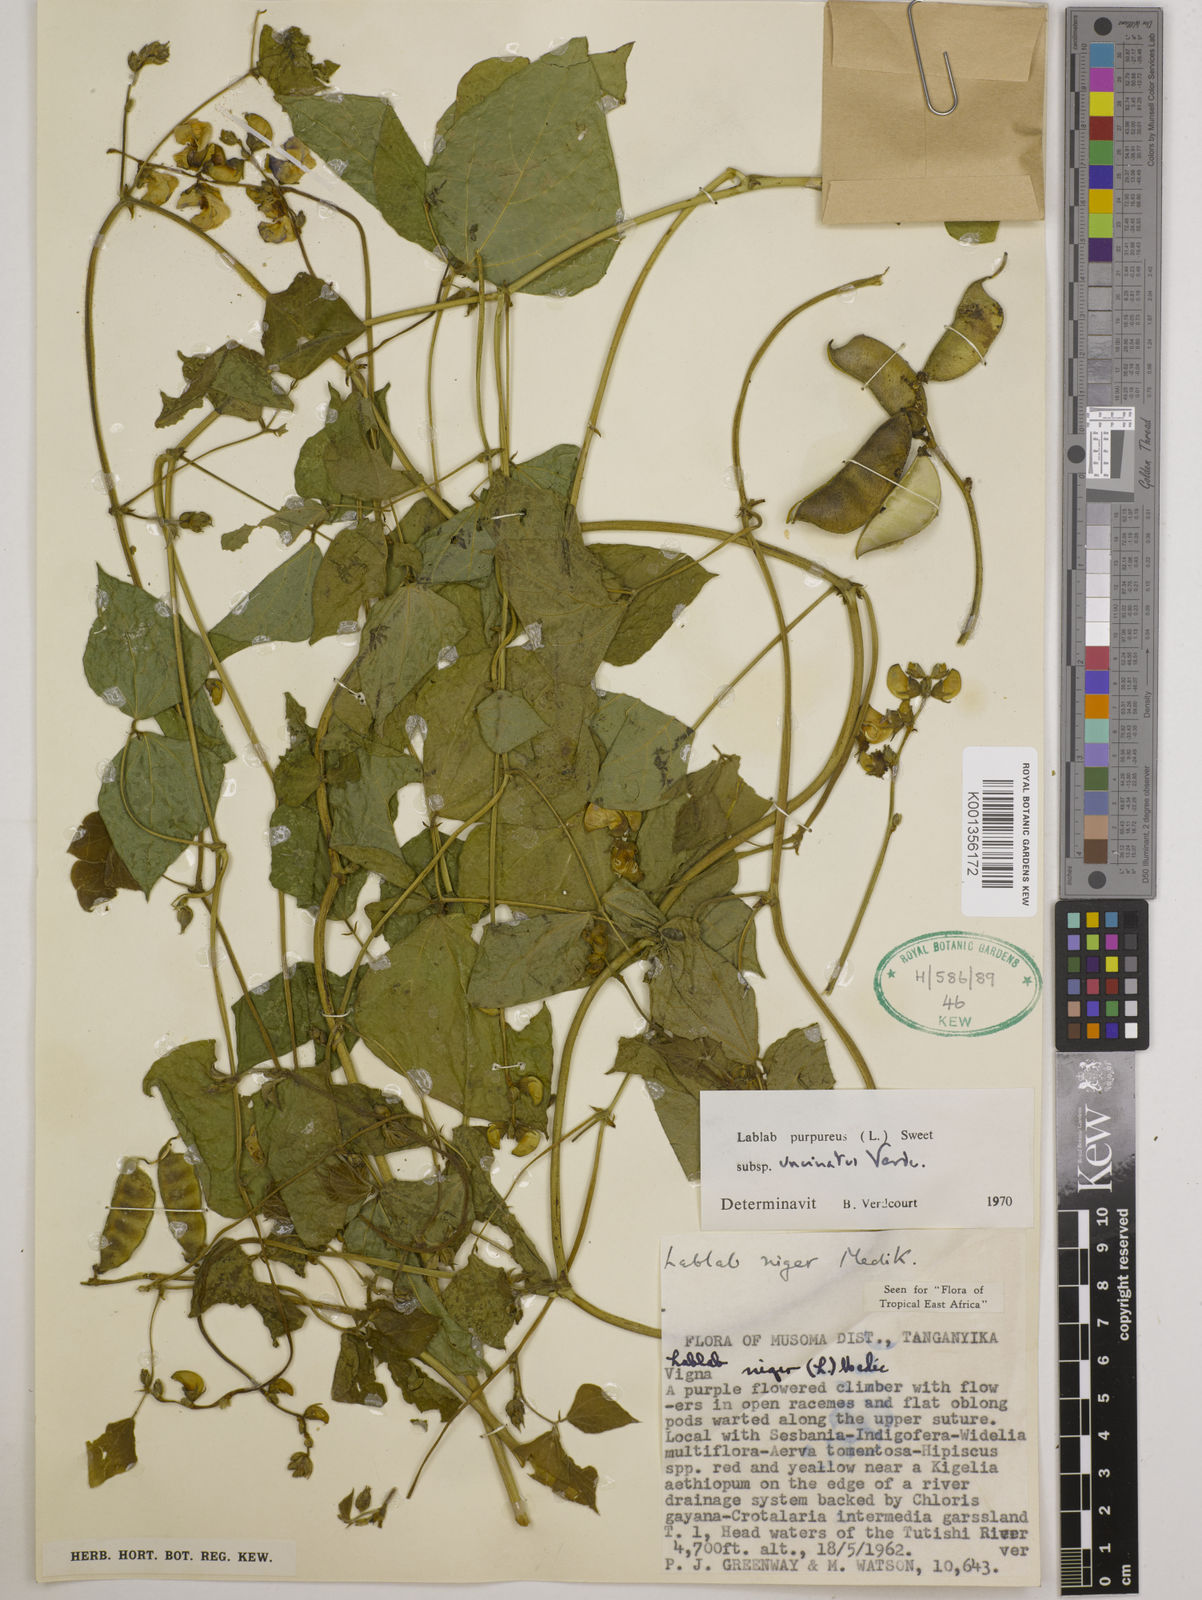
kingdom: Plantae
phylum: Tracheophyta
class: Magnoliopsida
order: Fabales
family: Fabaceae
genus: Lablab
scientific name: Lablab purpureus
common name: Lablab-bean
